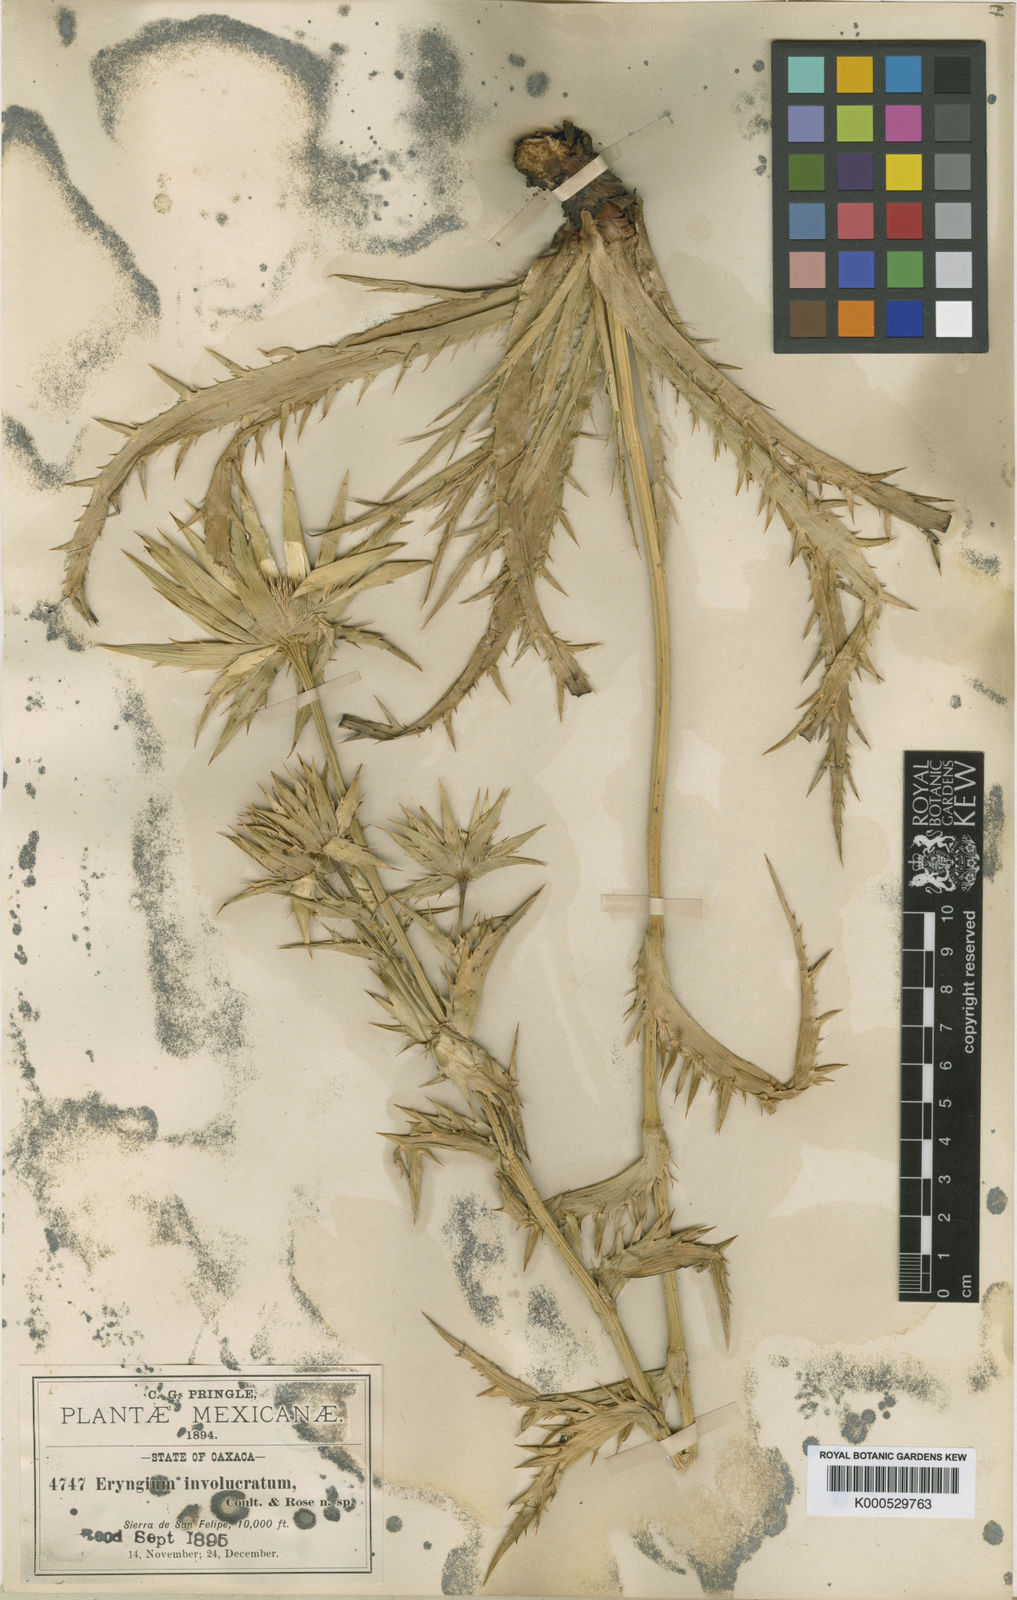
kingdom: Plantae
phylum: Tracheophyta
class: Magnoliopsida
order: Apiales
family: Apiaceae
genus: Eryngium
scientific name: Eryngium monocephalum
